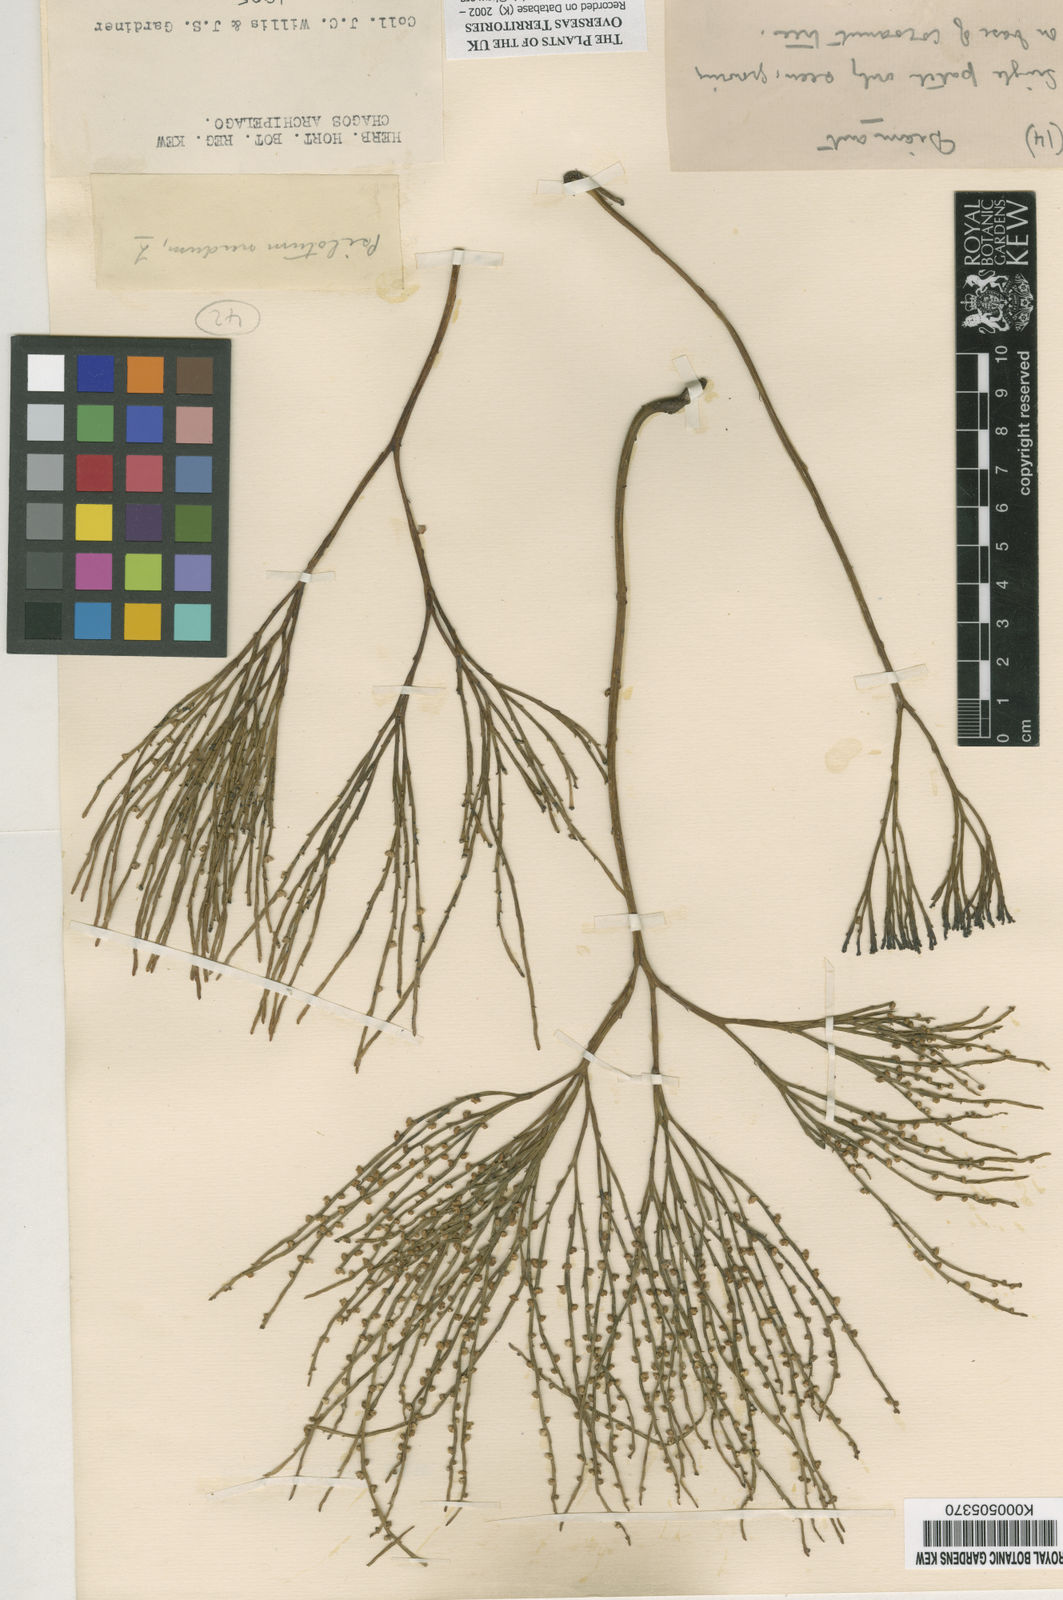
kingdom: Plantae
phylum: Tracheophyta
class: Polypodiopsida
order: Psilotales
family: Psilotaceae
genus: Psilotum
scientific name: Psilotum
